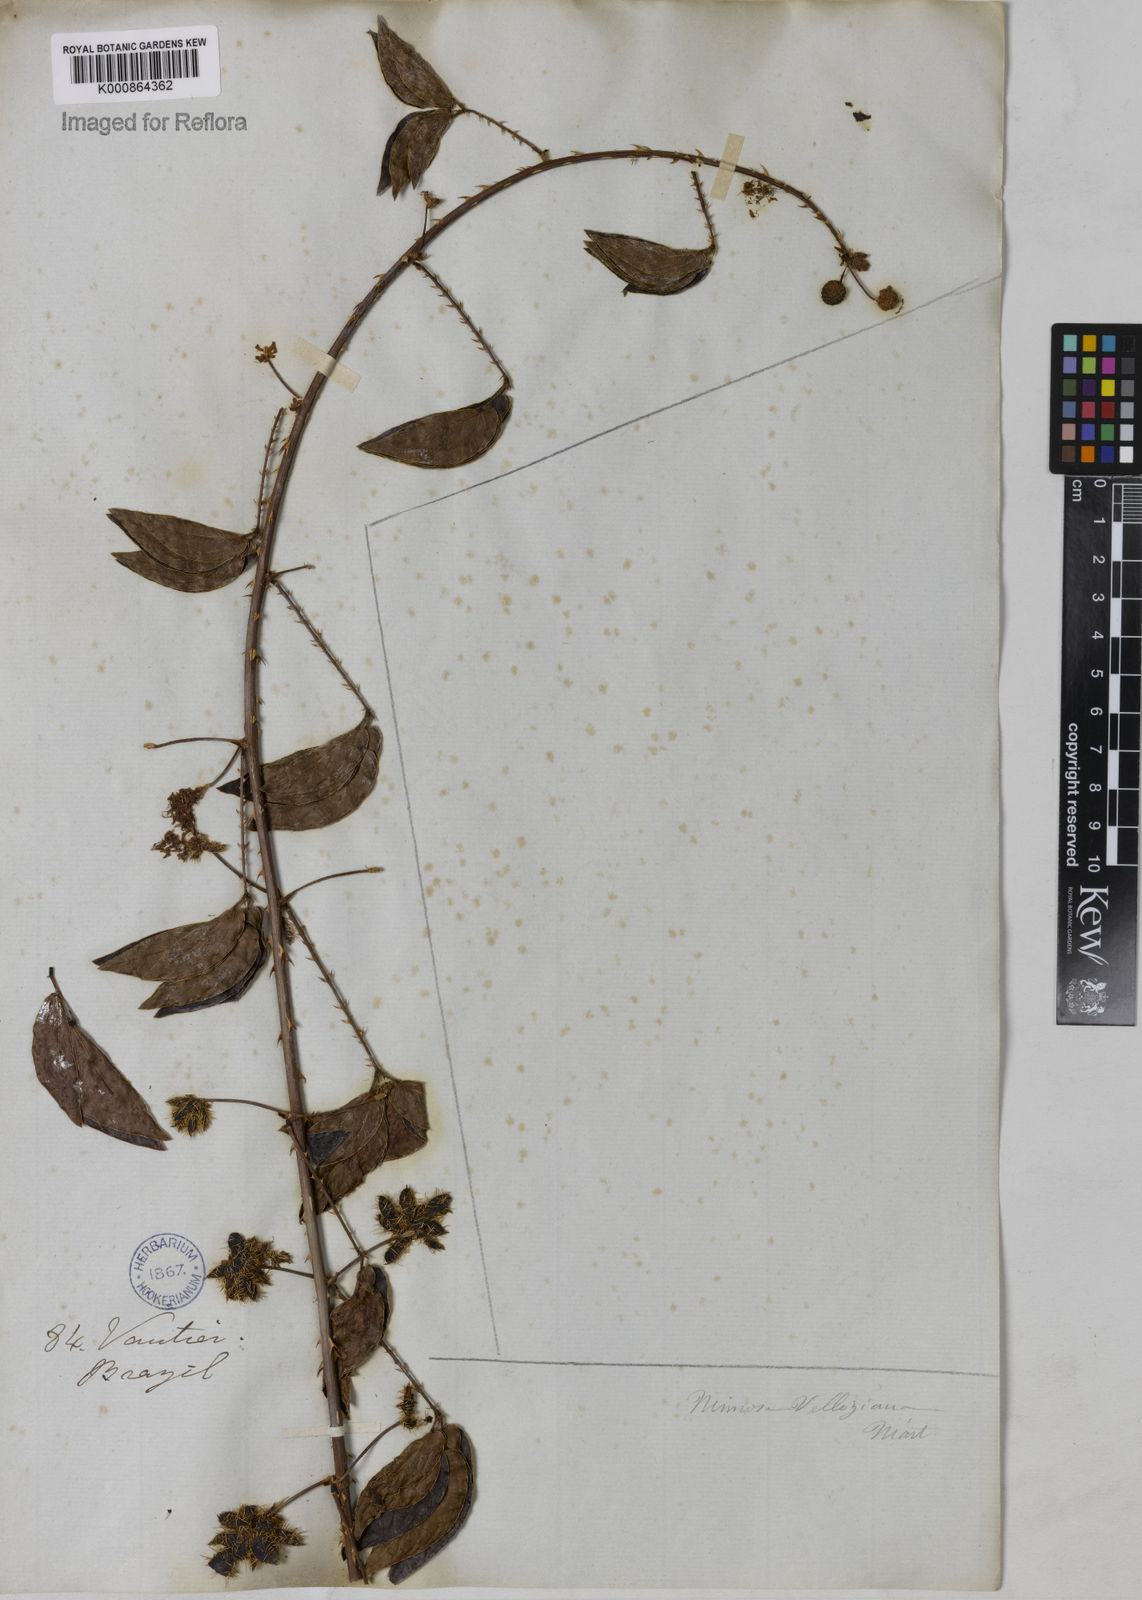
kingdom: Plantae
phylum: Tracheophyta
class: Magnoliopsida
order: Fabales
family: Fabaceae
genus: Mimosa
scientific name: Mimosa velloziana
